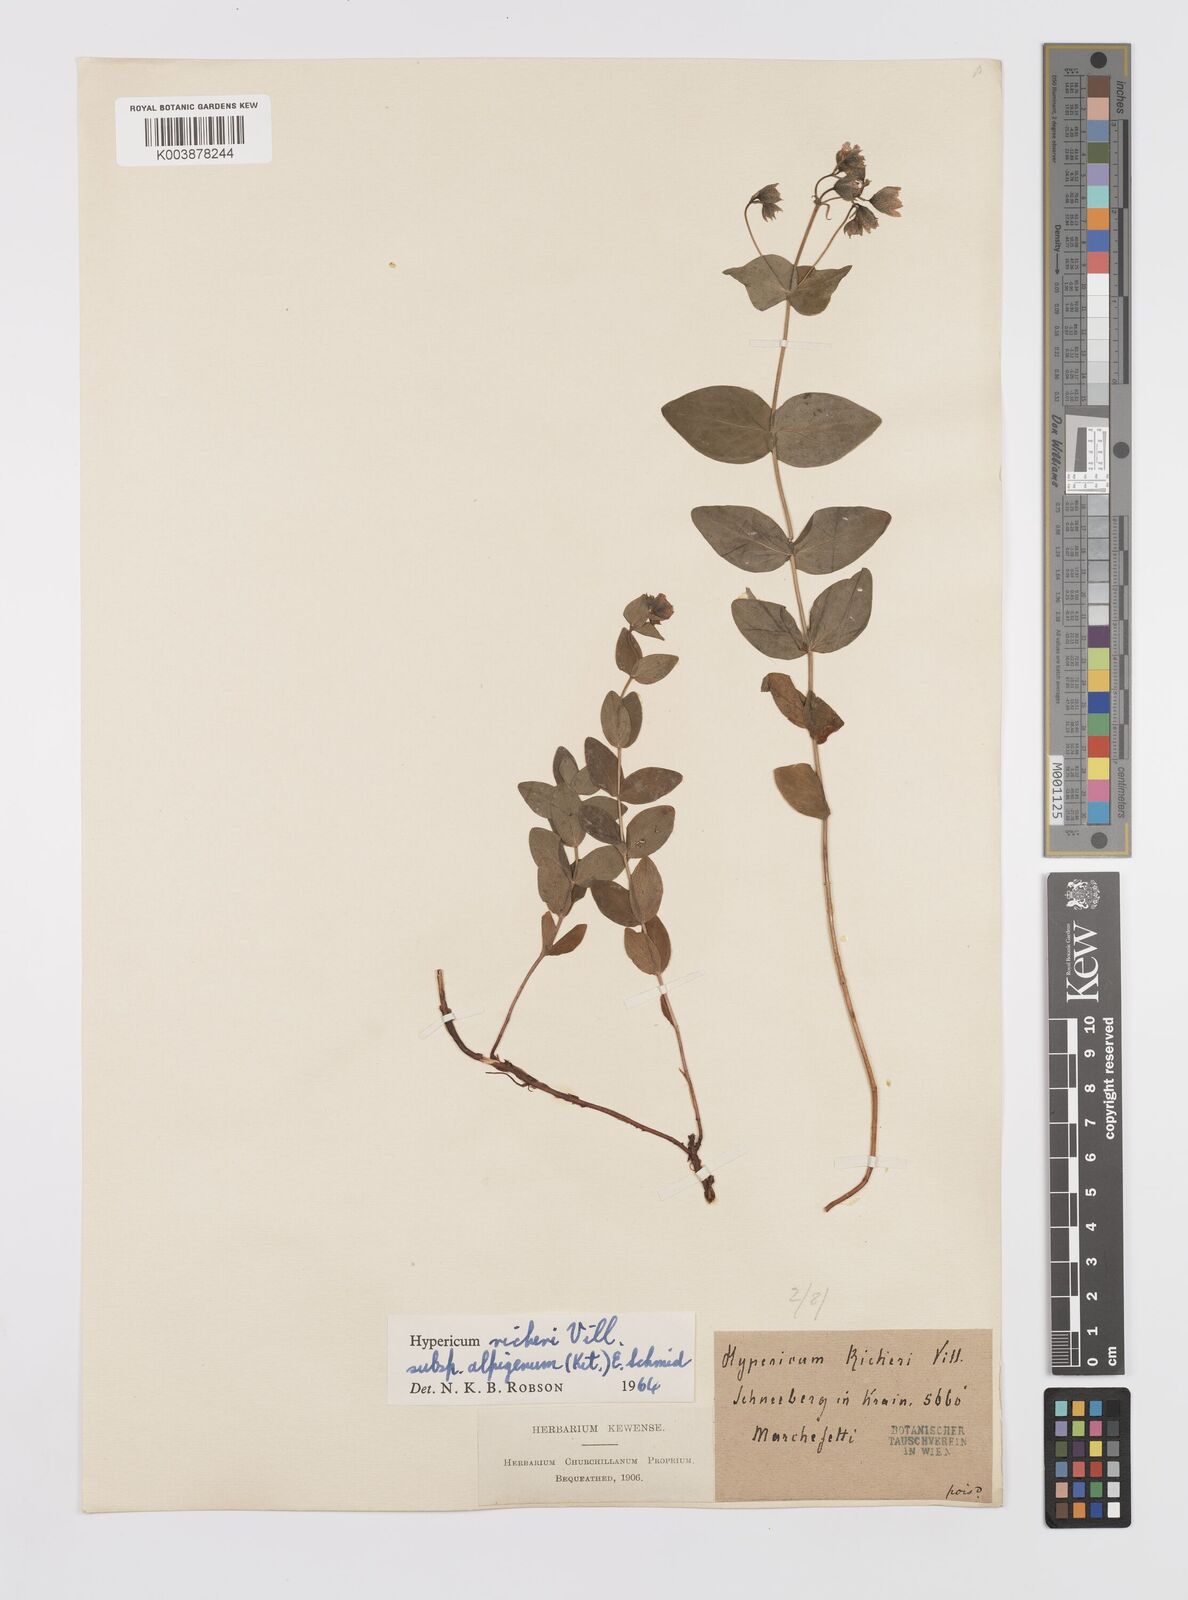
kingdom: Plantae
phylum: Tracheophyta
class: Magnoliopsida
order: Malpighiales
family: Hypericaceae
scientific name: Hypericaceae
